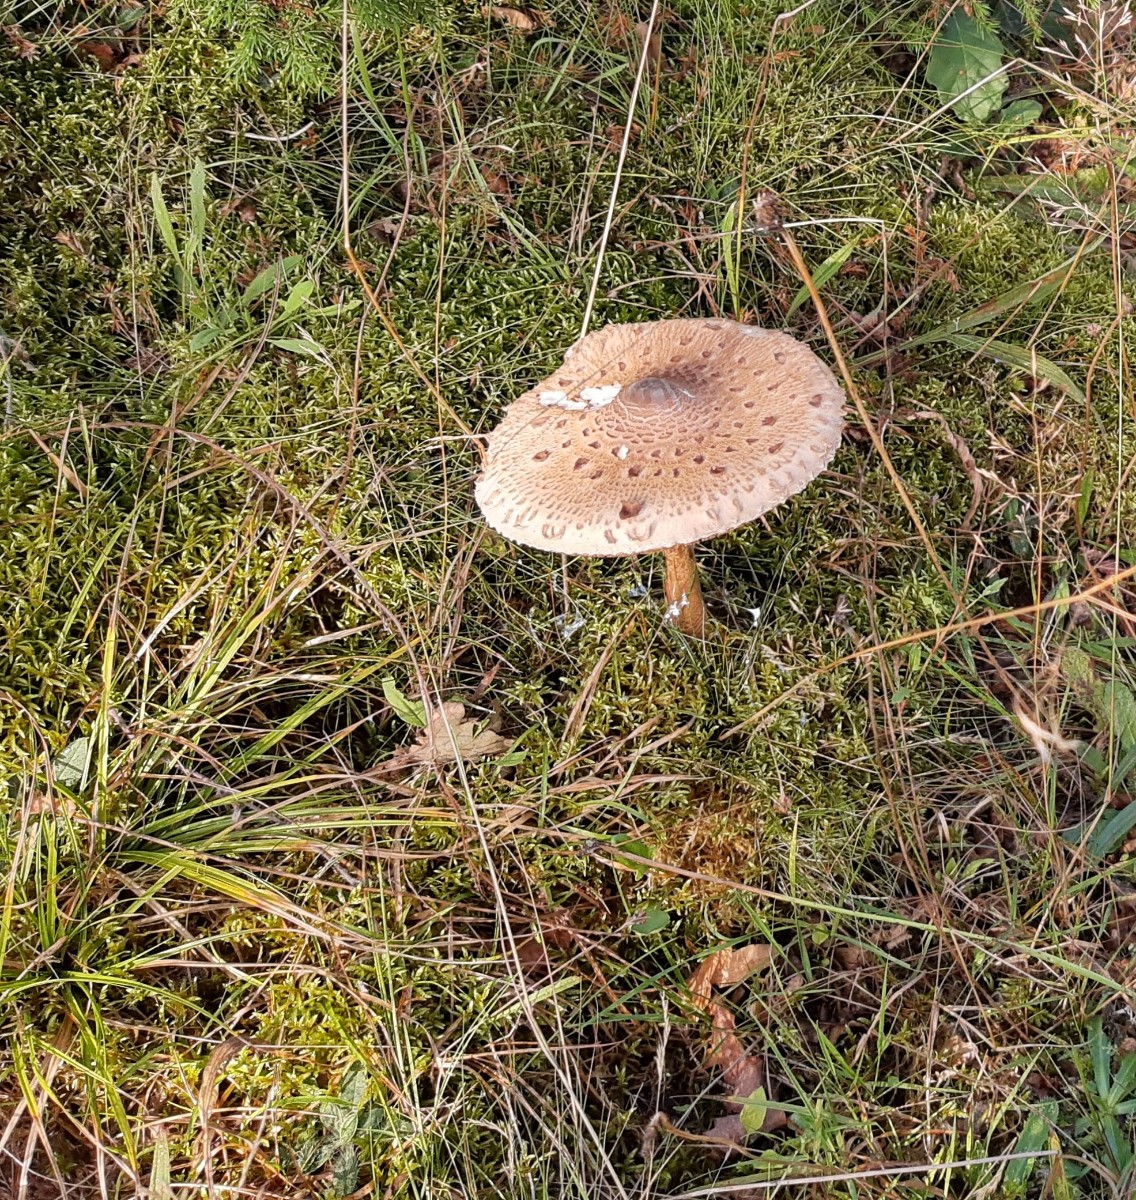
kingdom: Fungi
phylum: Basidiomycota
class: Agaricomycetes
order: Agaricales
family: Agaricaceae
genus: Macrolepiota
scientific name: Macrolepiota procera
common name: stor kæmpeparasolhat
